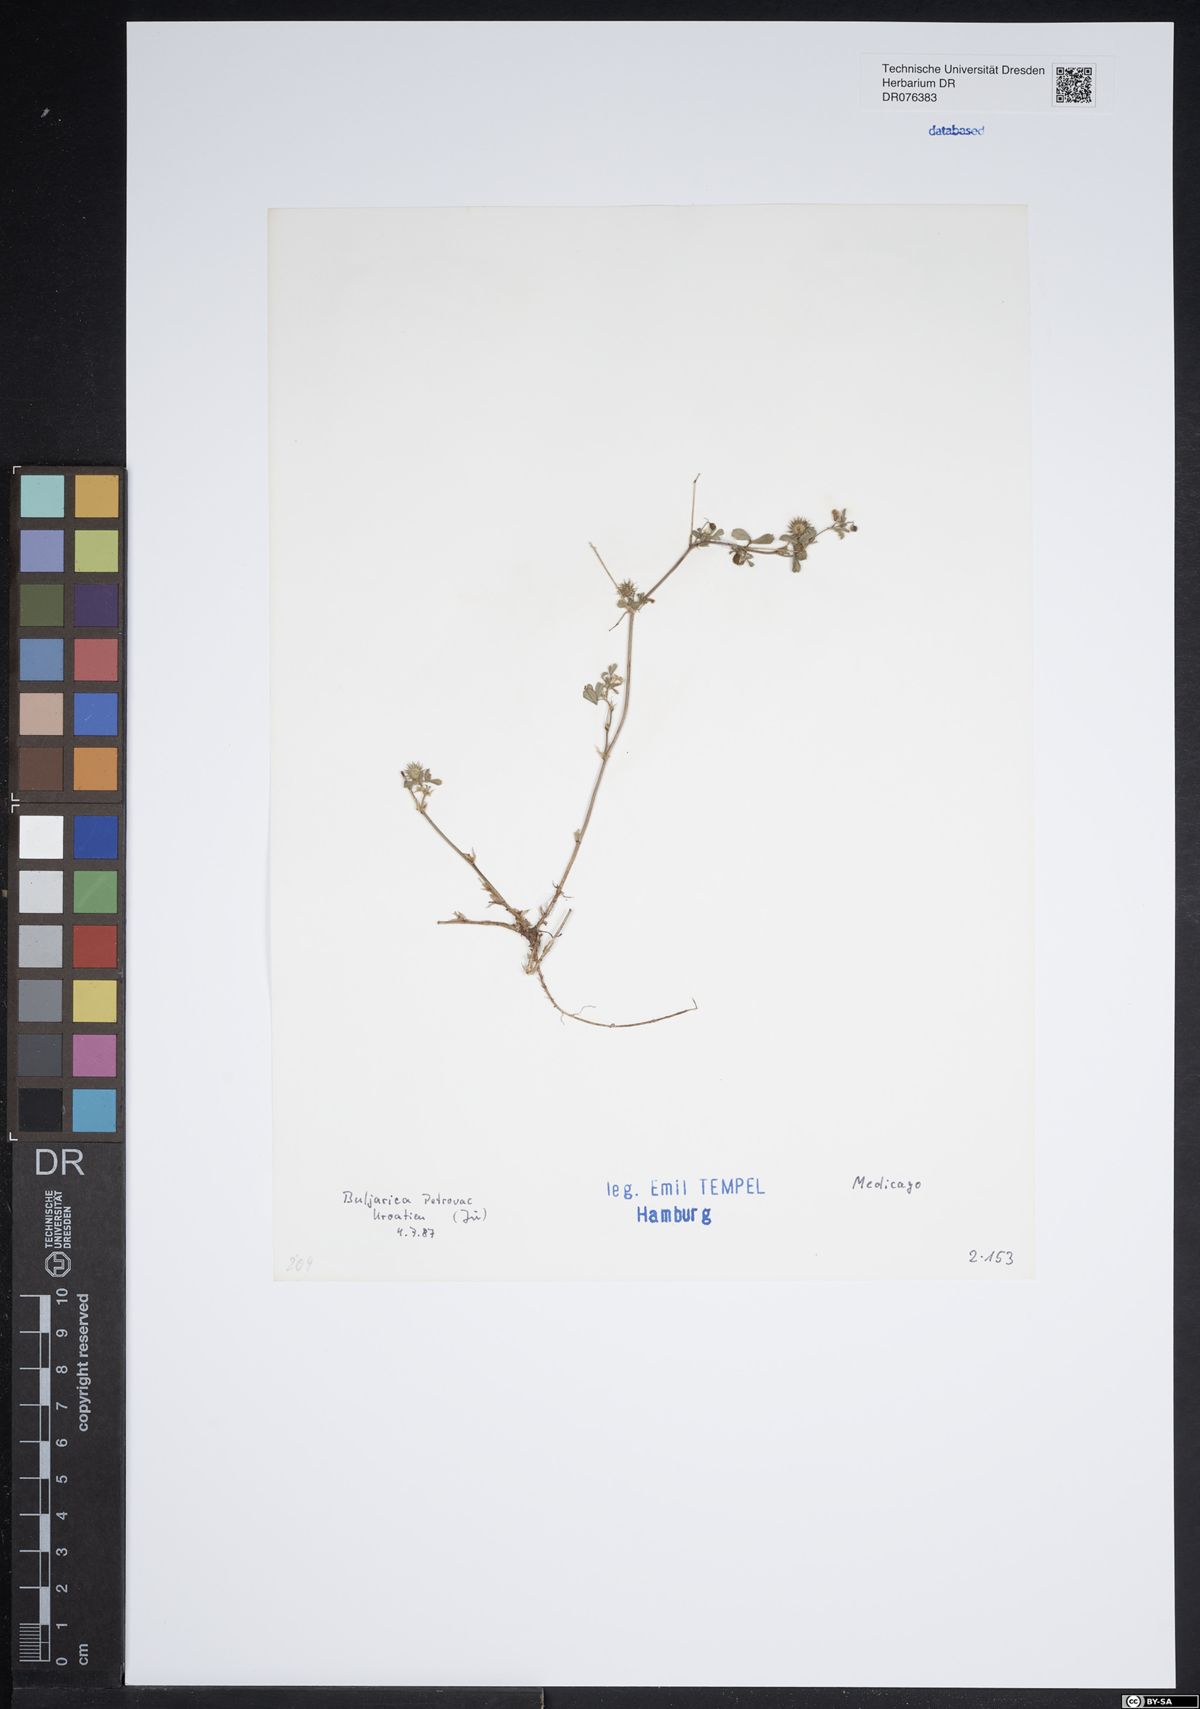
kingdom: Plantae
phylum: Tracheophyta
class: Magnoliopsida
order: Fabales
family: Fabaceae
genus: Medicago
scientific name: Medicago
